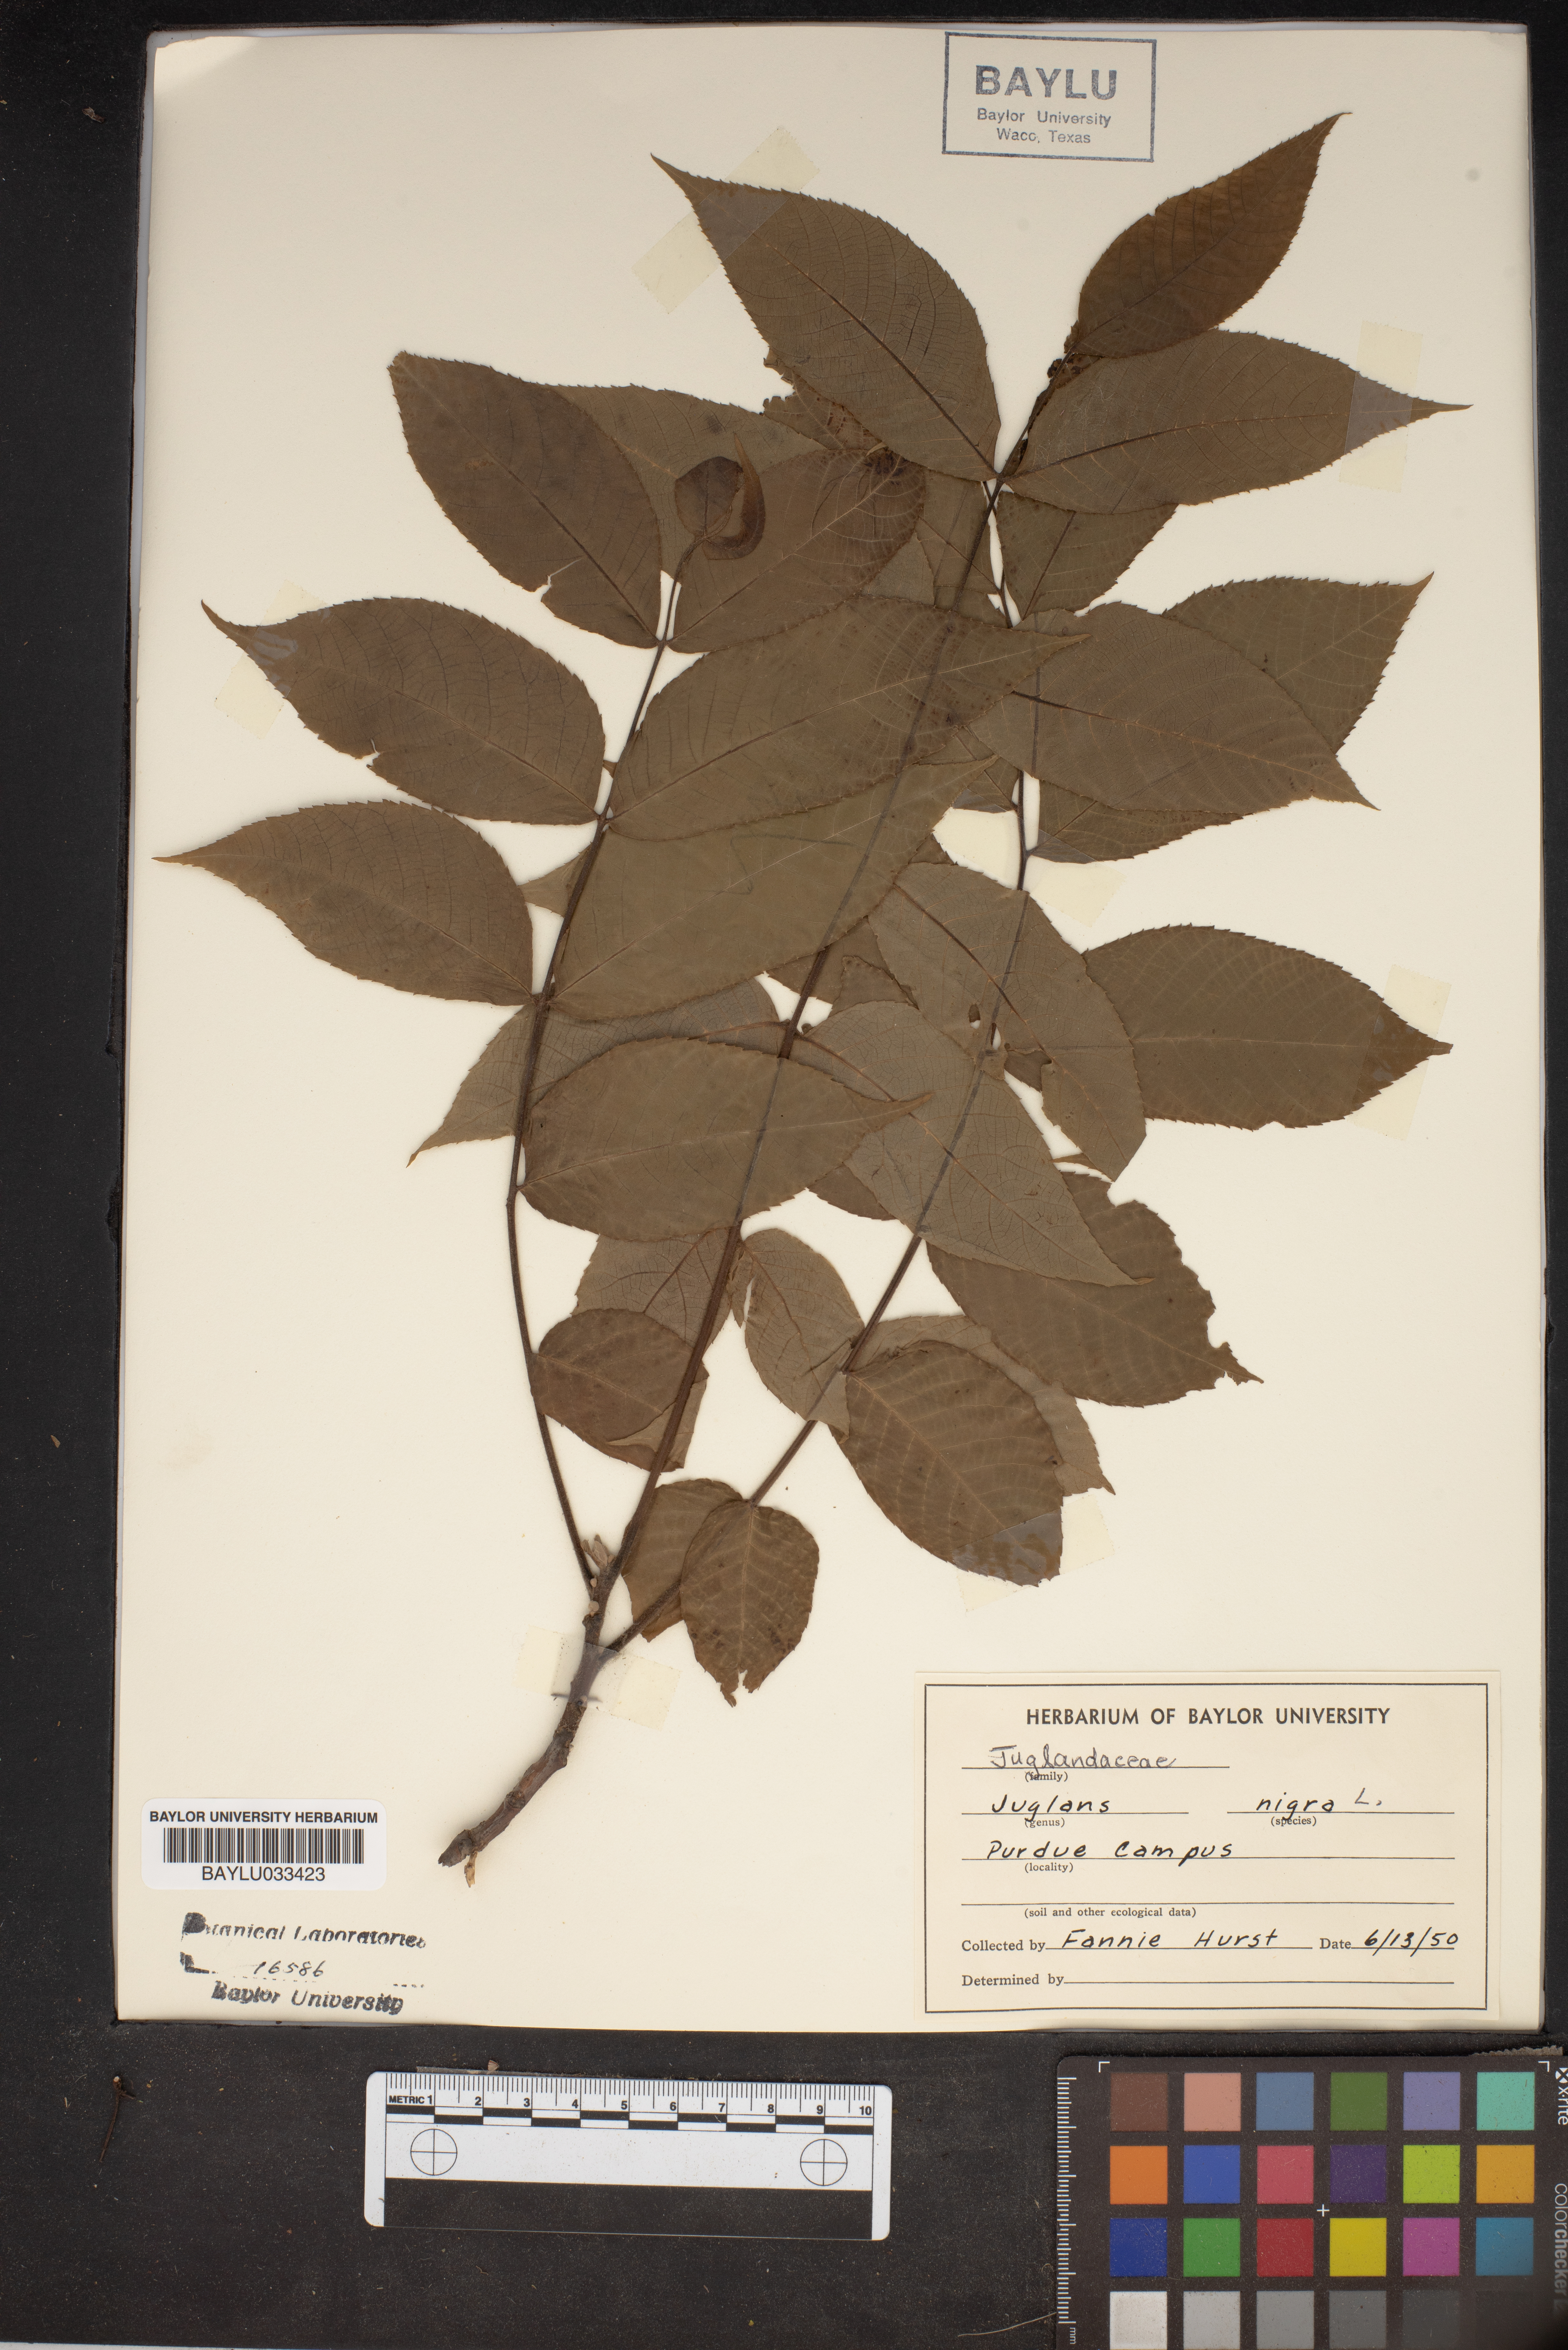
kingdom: Plantae
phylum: Tracheophyta
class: Magnoliopsida
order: Fagales
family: Juglandaceae
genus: Juglans
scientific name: Juglans nigra
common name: Black walnut
